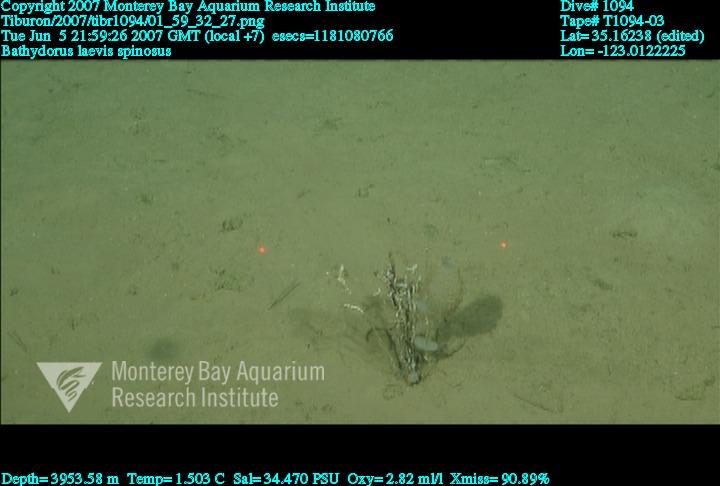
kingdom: Animalia
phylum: Porifera
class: Hexactinellida
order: Lyssacinosida
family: Rossellidae
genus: Bathydorus
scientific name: Bathydorus spinosus
